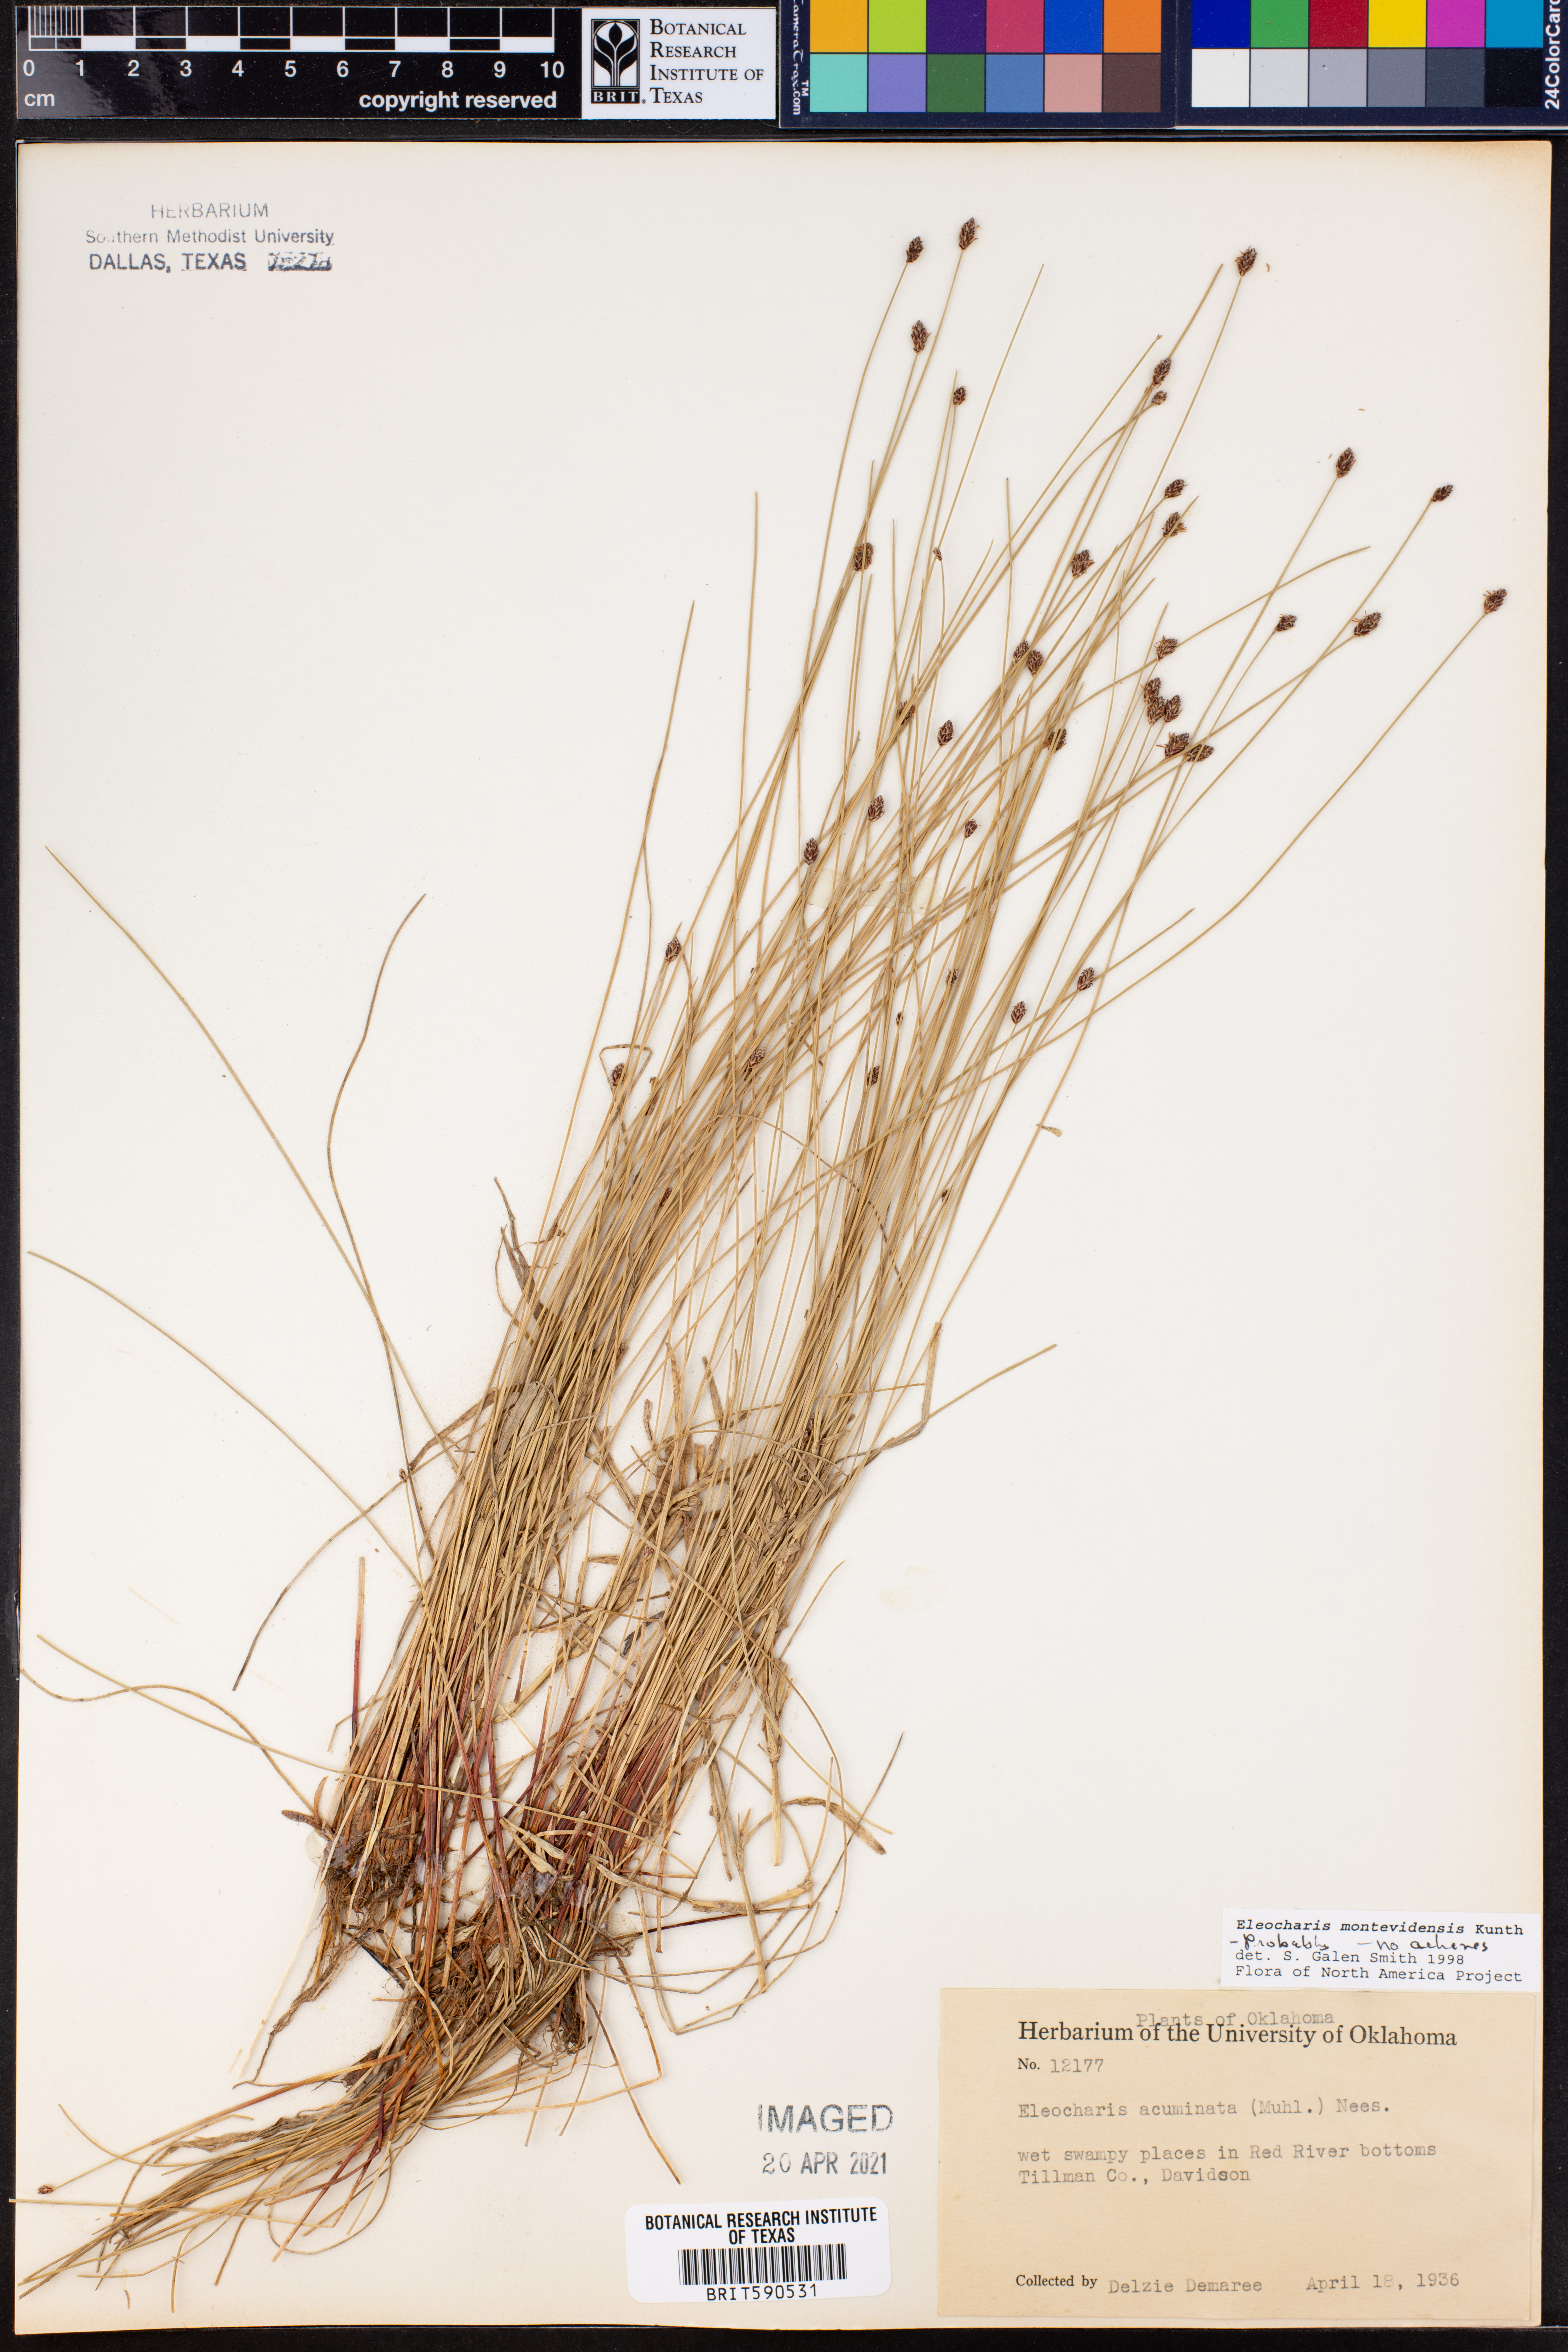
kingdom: Plantae
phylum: Tracheophyta
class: Liliopsida
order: Poales
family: Cyperaceae
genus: Eleocharis
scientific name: Eleocharis montevidensis
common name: Sand spike-rush
